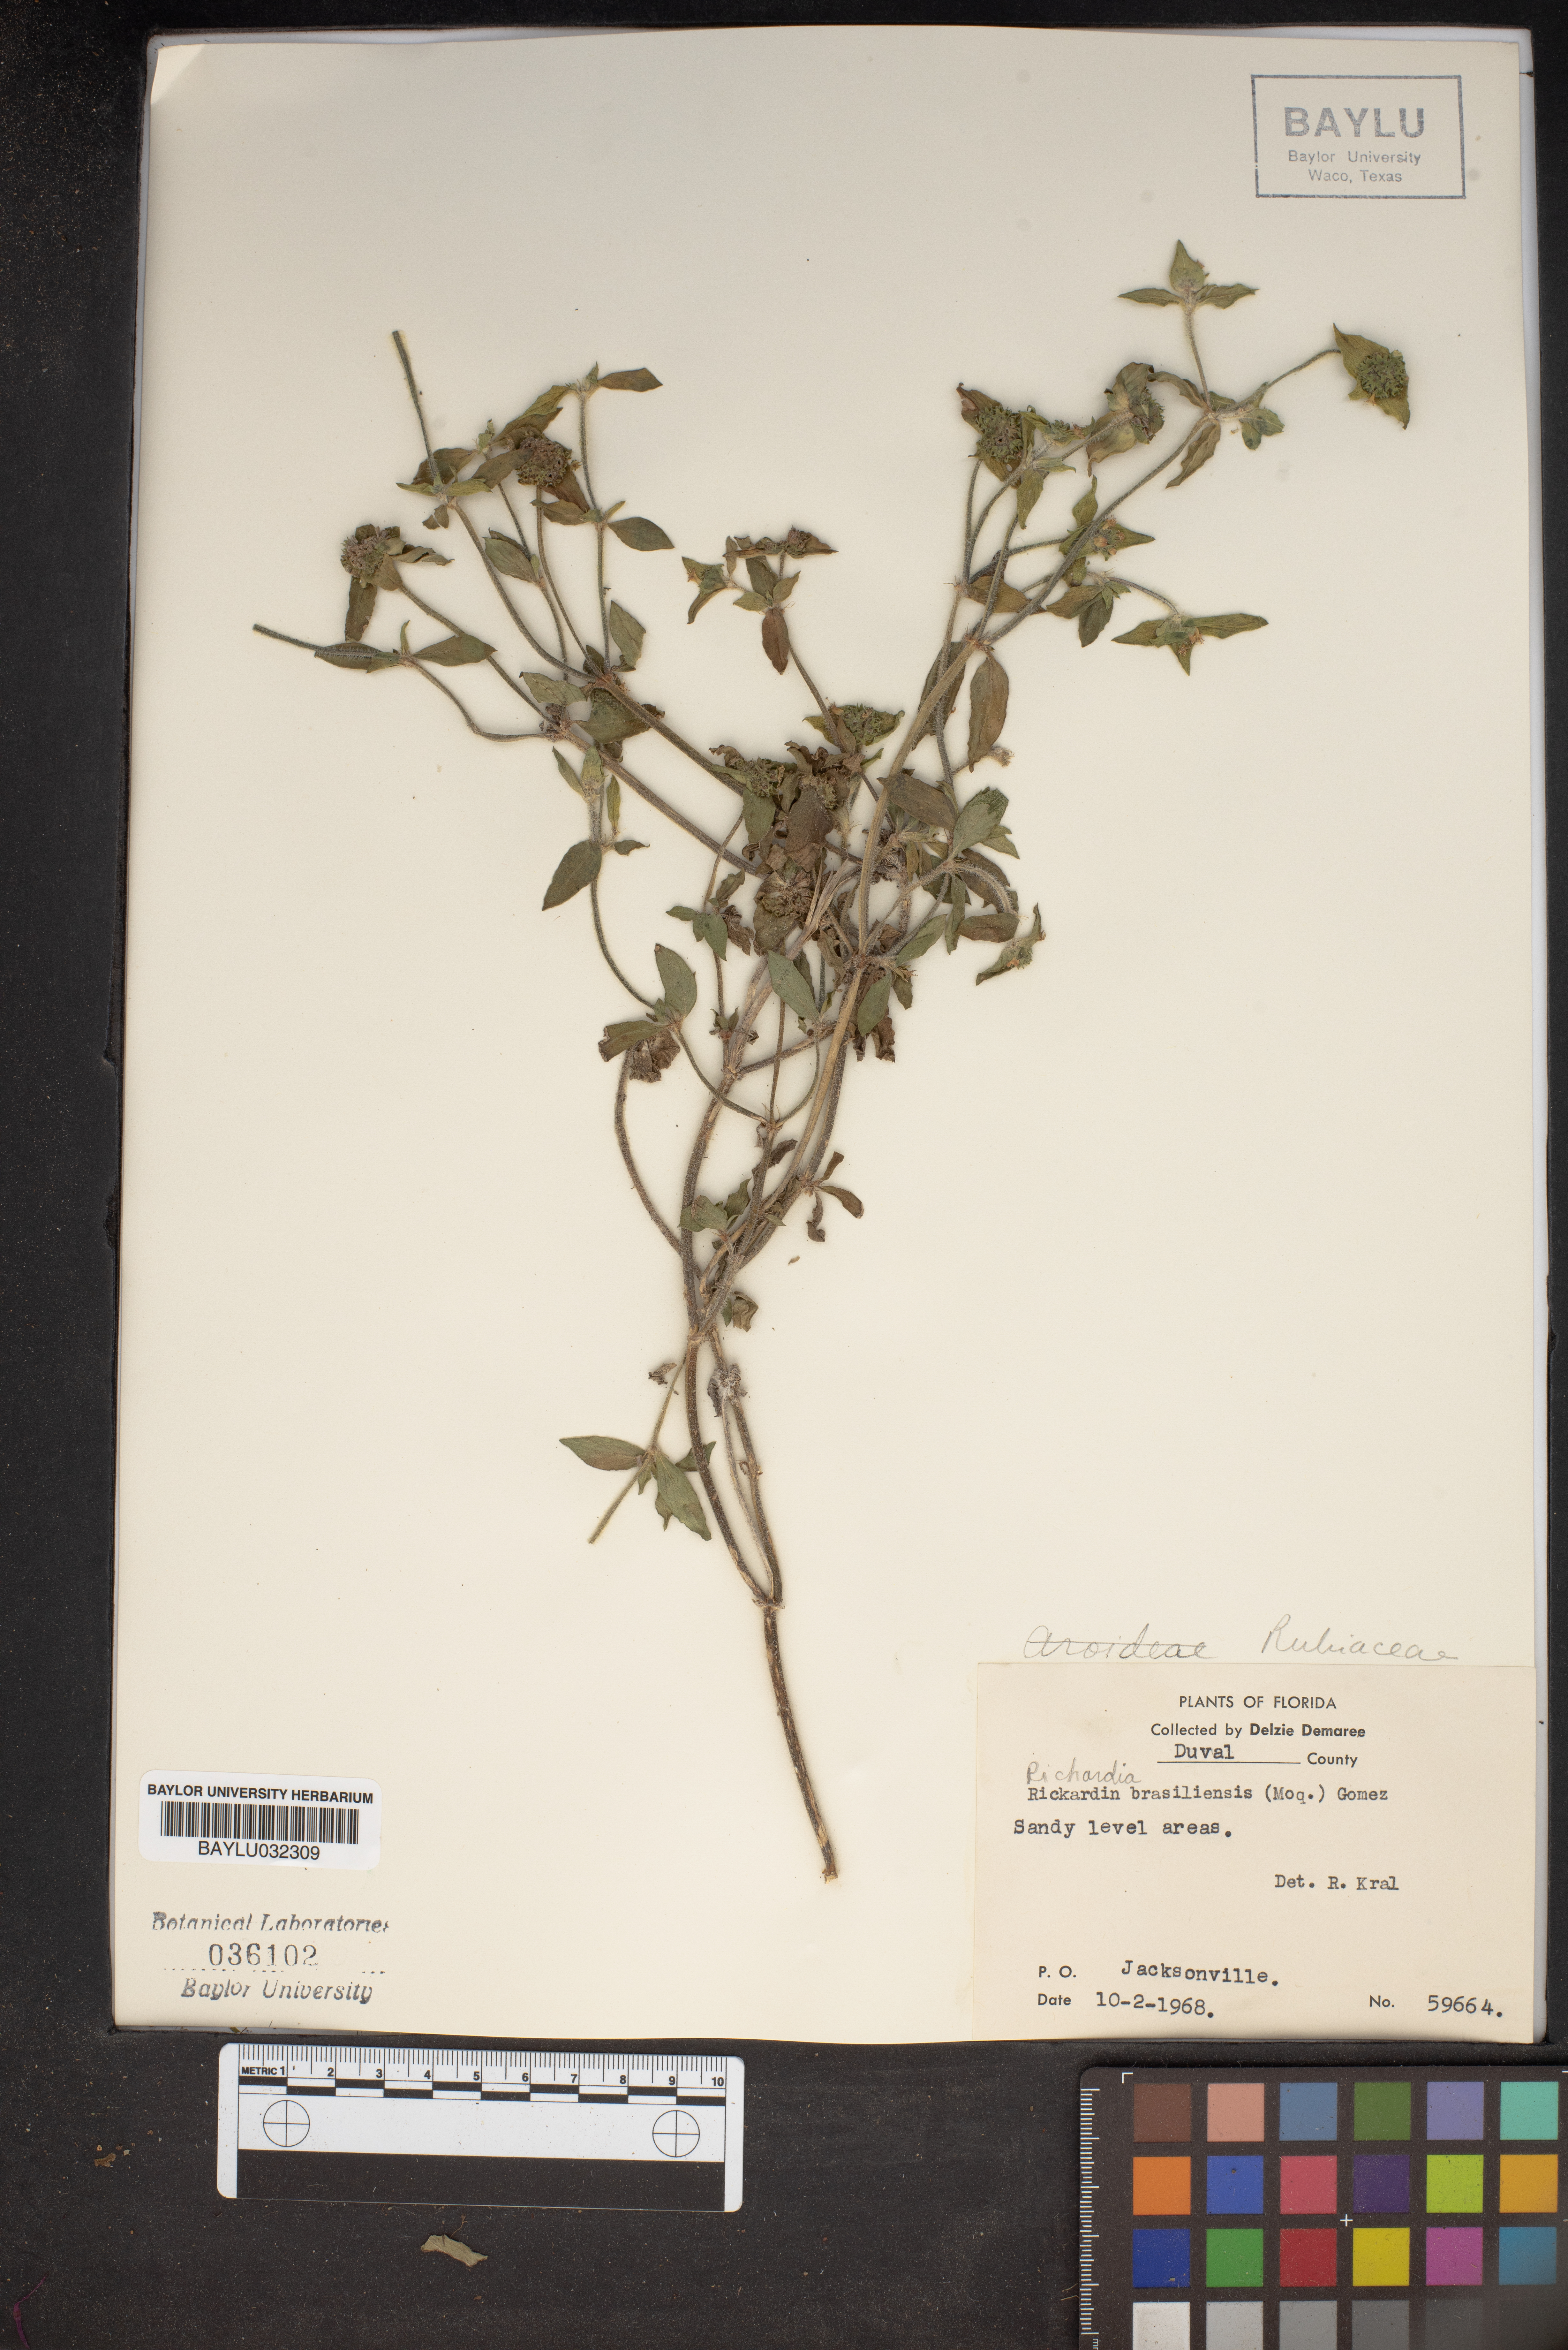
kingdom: Plantae
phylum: Tracheophyta
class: Magnoliopsida
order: Gentianales
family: Rubiaceae
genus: Richardia
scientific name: Richardia brasiliensis
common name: Tropical mexican clover
